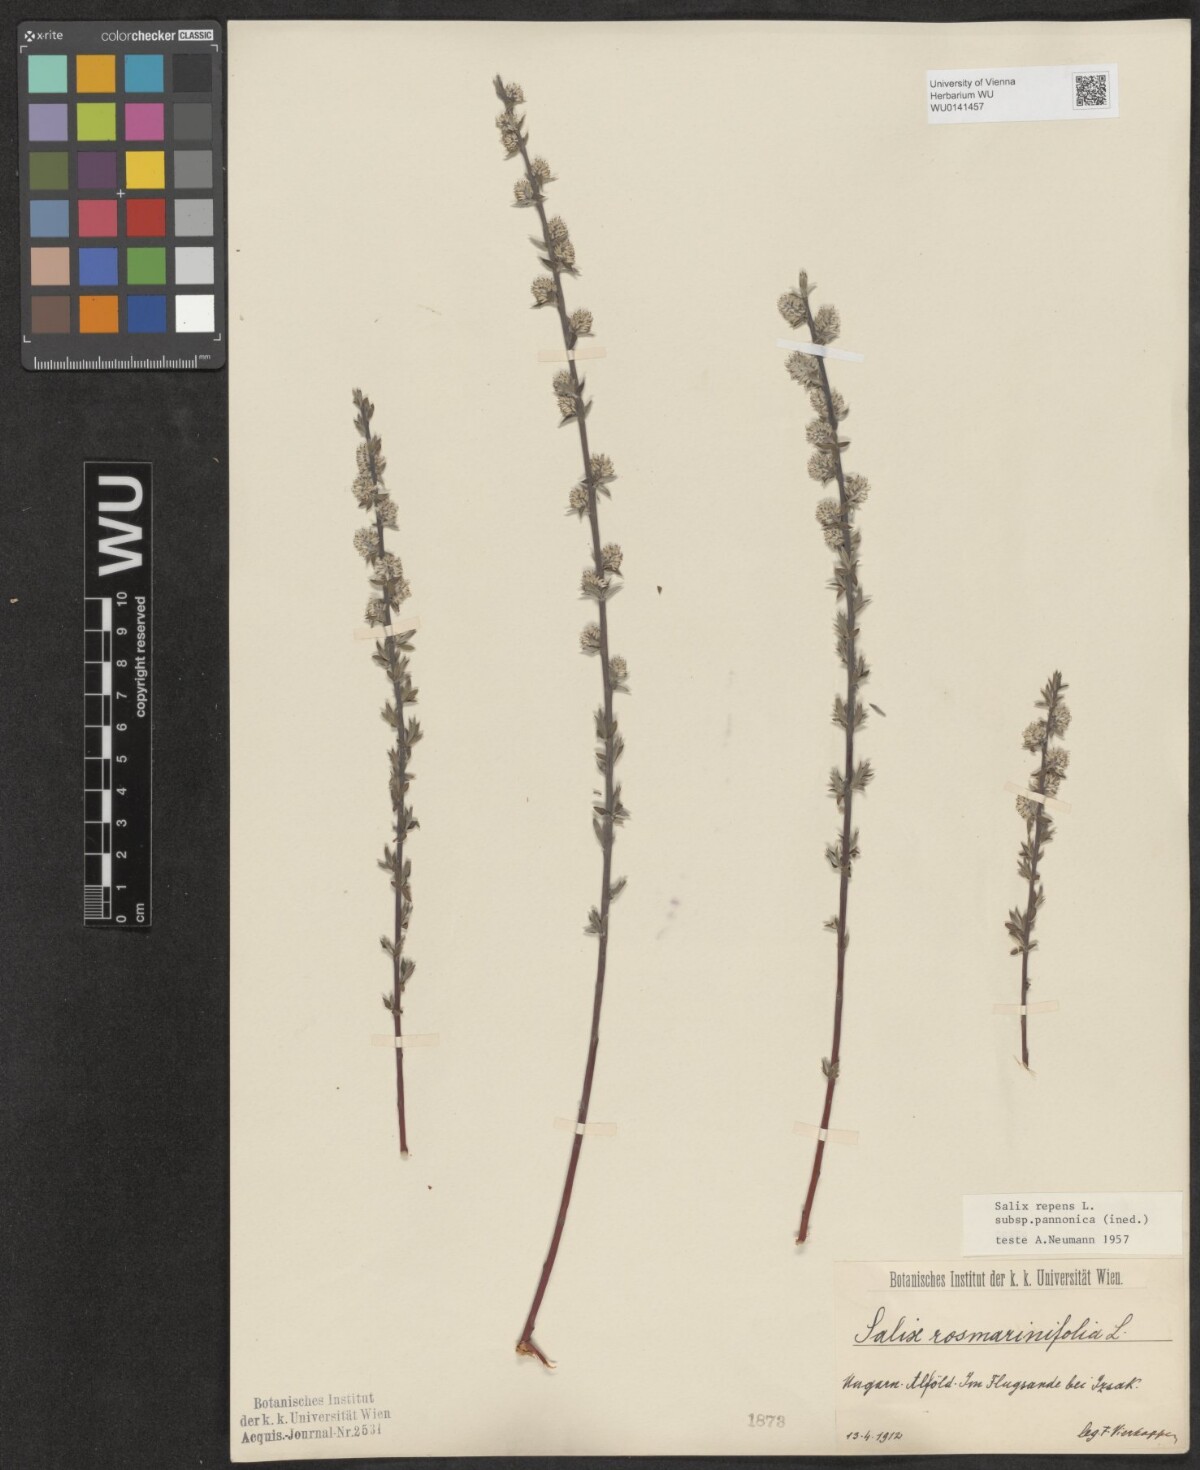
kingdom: Plantae
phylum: Tracheophyta
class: Magnoliopsida
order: Malpighiales
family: Salicaceae
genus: Salix
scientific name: Salix repens
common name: Creeping willow
